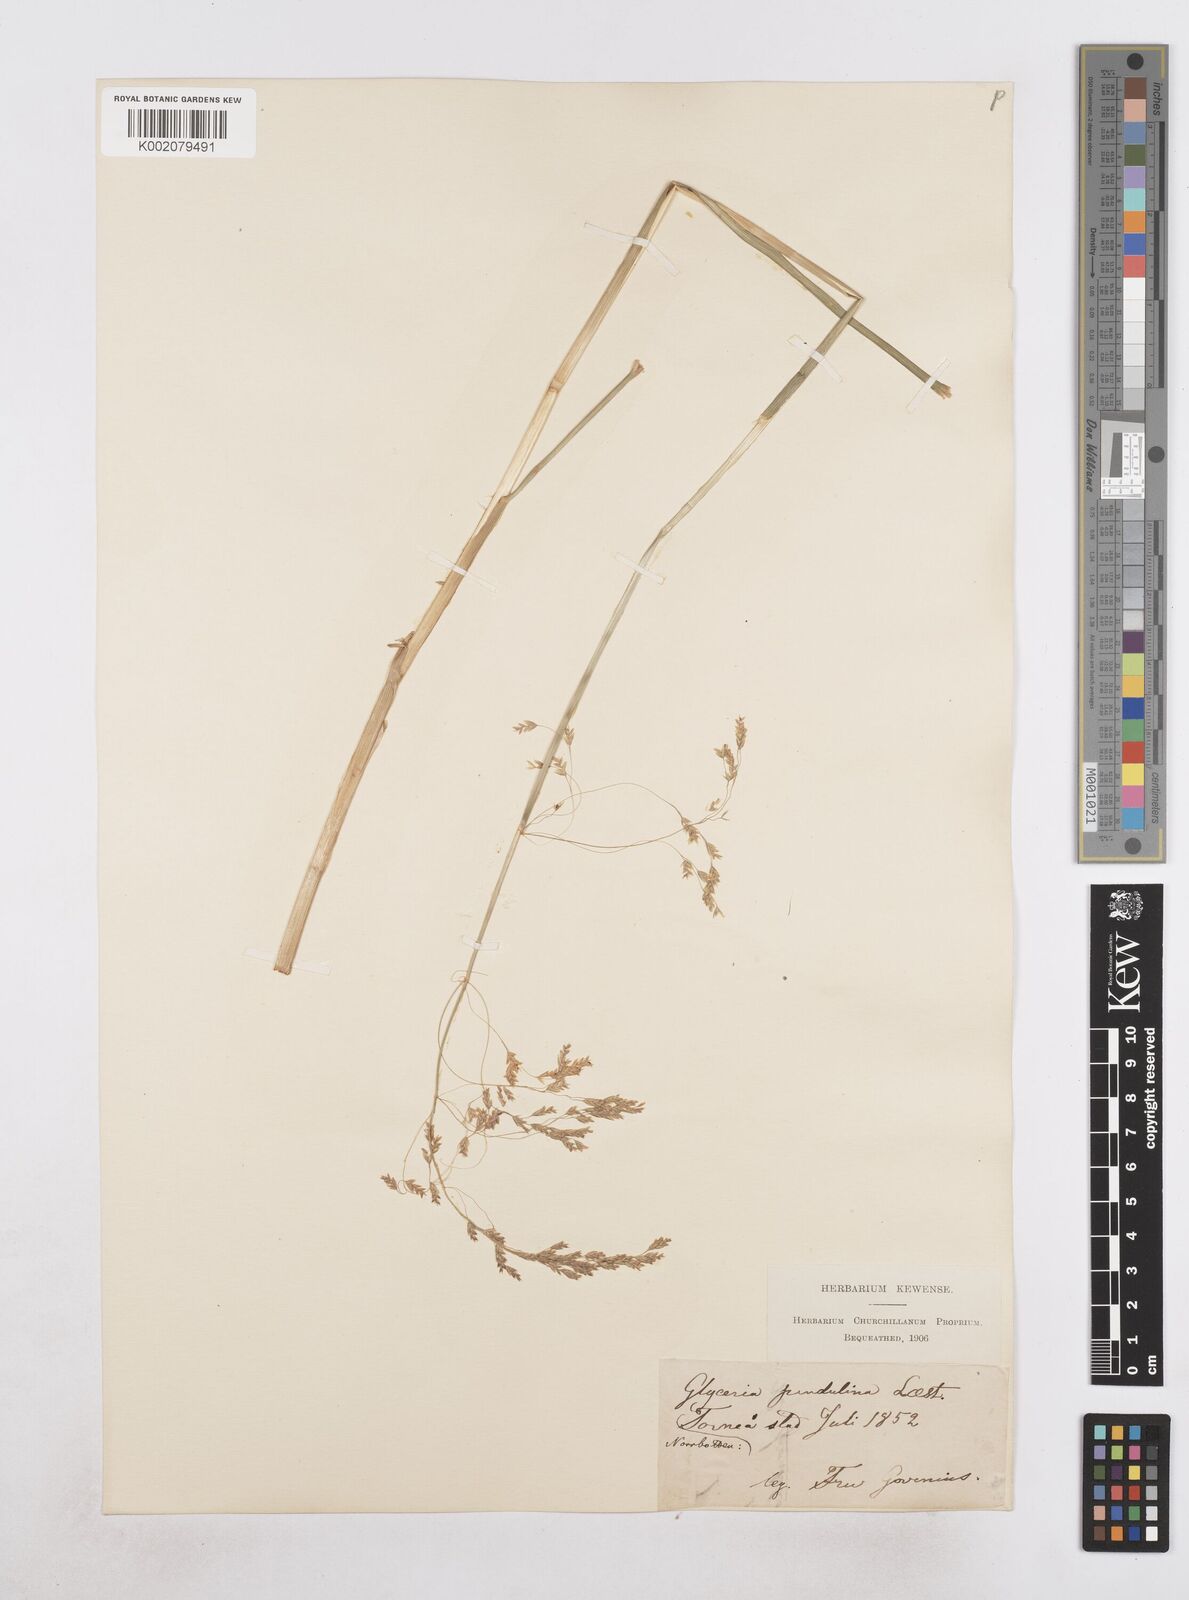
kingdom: Plantae
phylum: Tracheophyta
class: Liliopsida
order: Poales
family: Poaceae
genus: Dupontia
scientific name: Dupontia fulva
